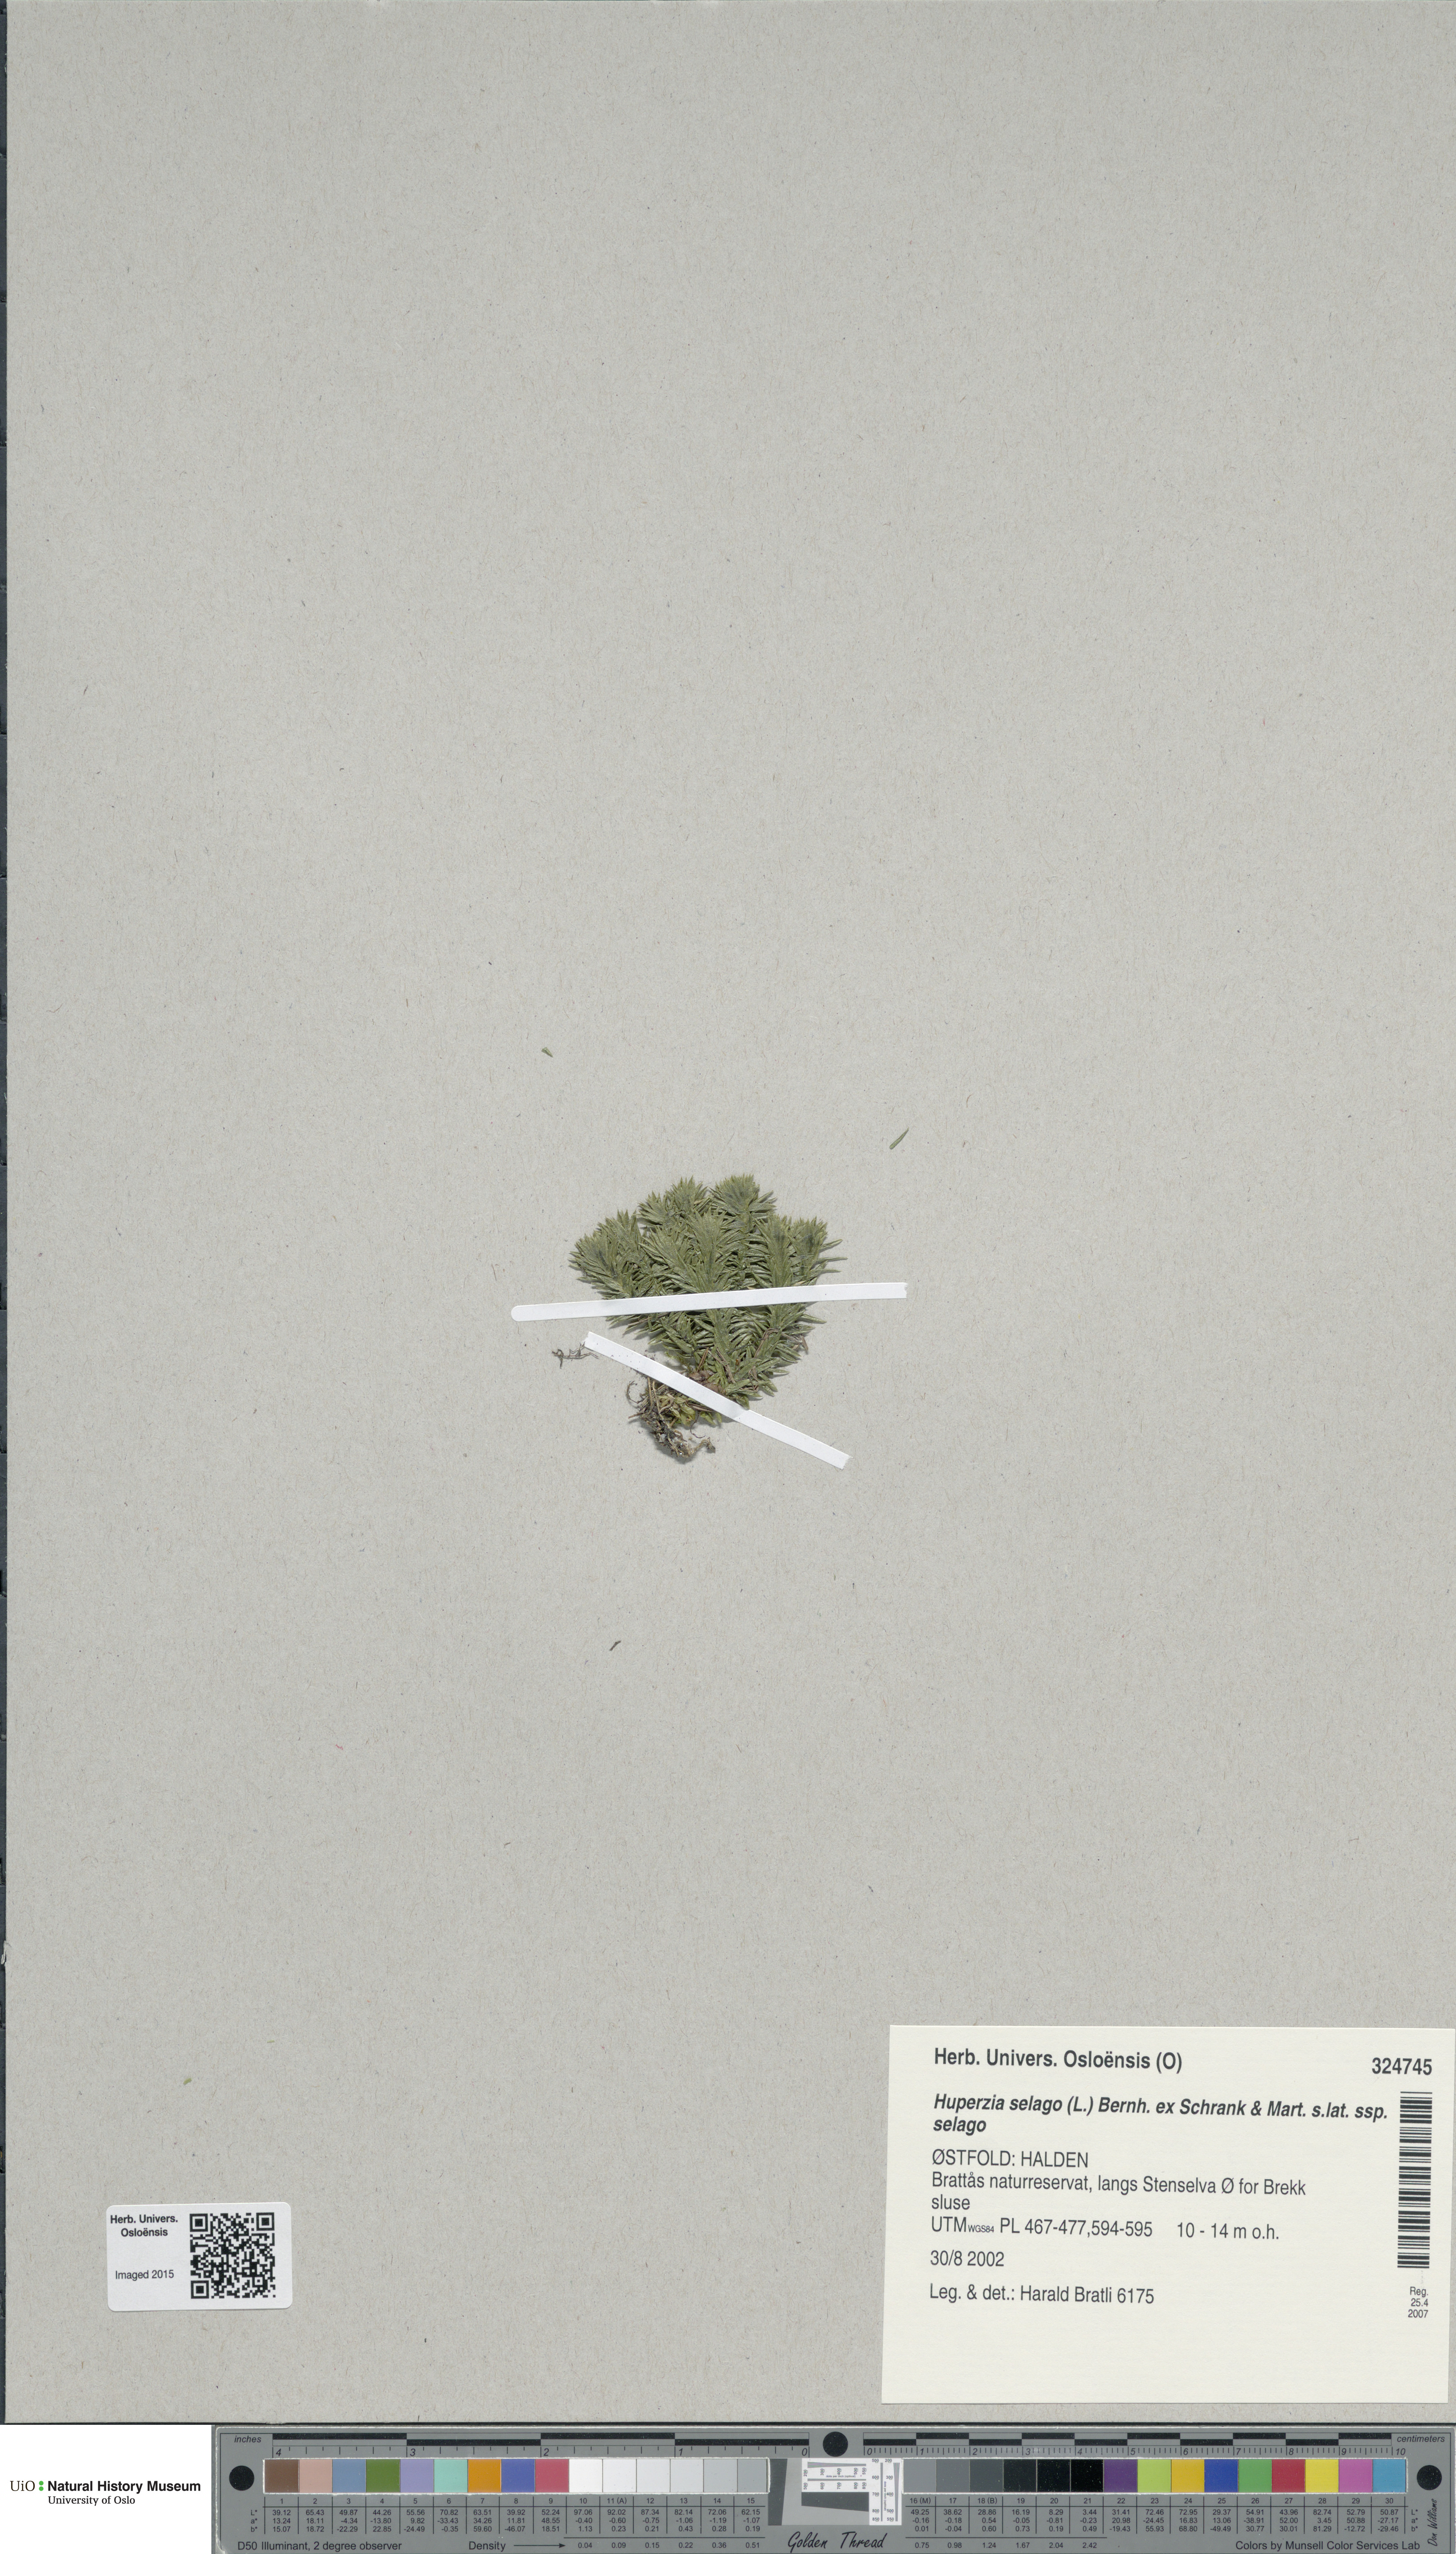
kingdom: Plantae
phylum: Tracheophyta
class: Lycopodiopsida
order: Lycopodiales
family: Lycopodiaceae
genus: Huperzia
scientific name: Huperzia selago
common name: Northern firmoss
